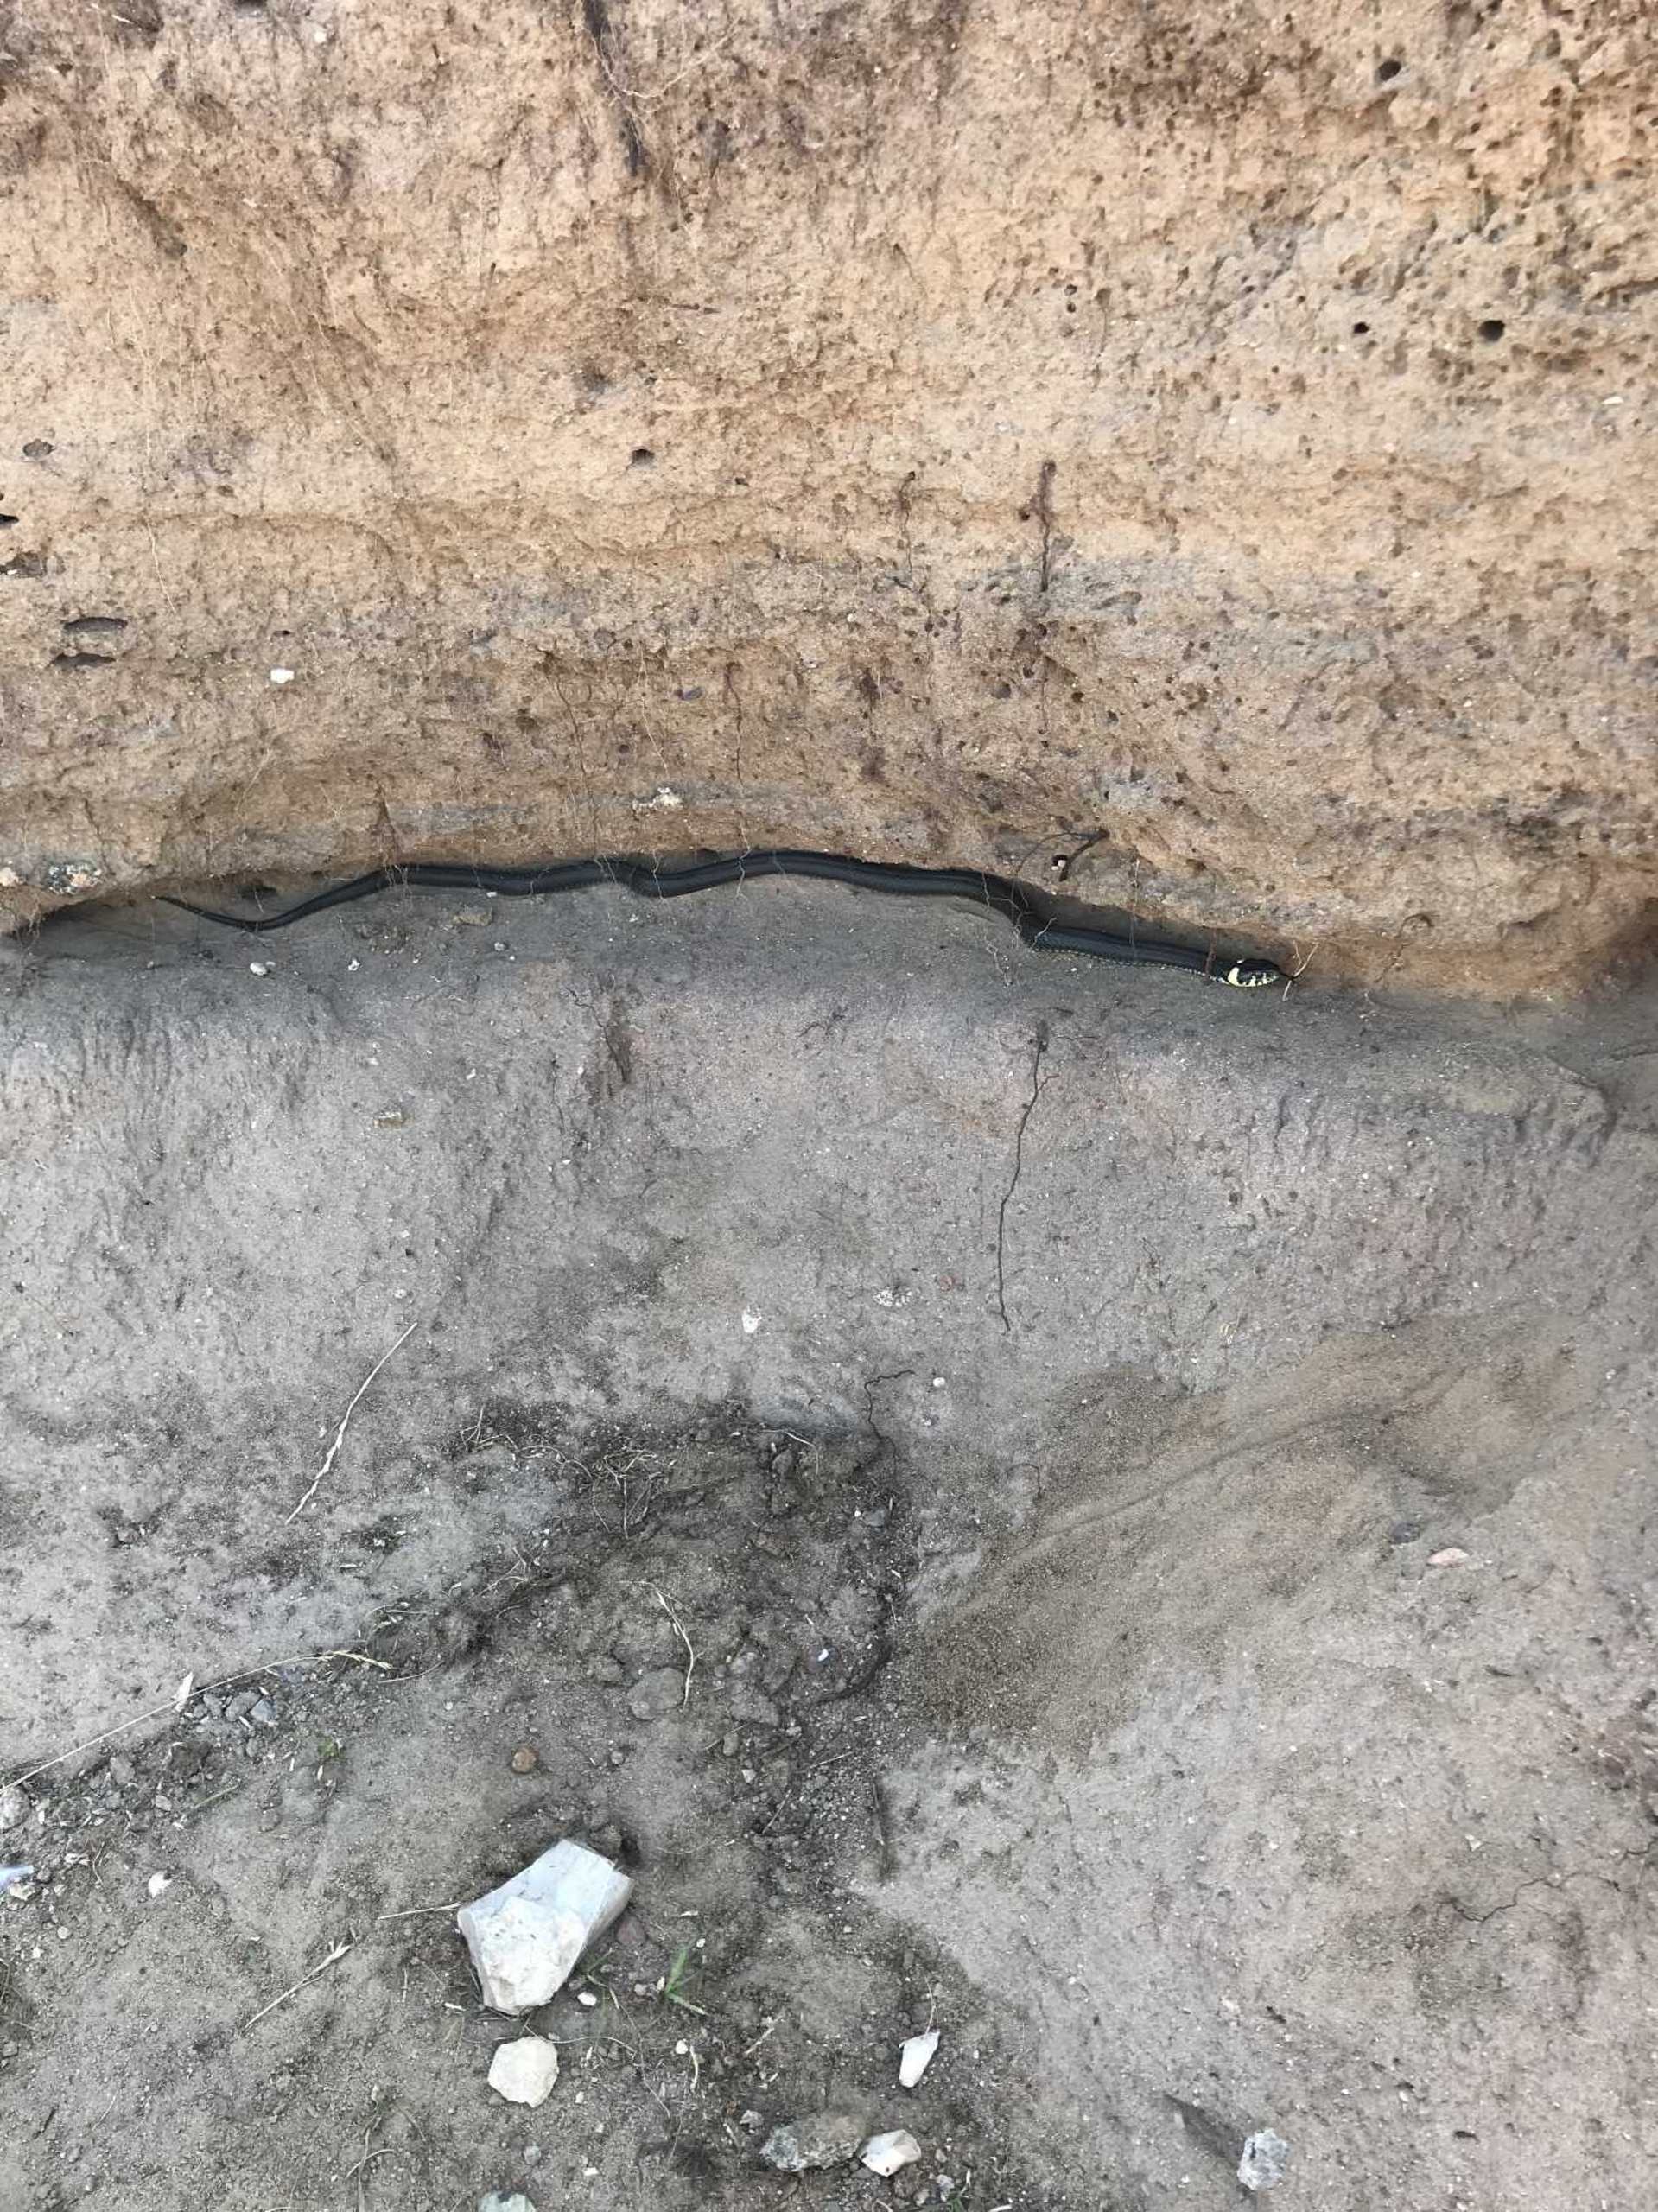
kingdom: Animalia
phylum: Chordata
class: Squamata
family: Colubridae
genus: Natrix
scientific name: Natrix natrix
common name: Snog
